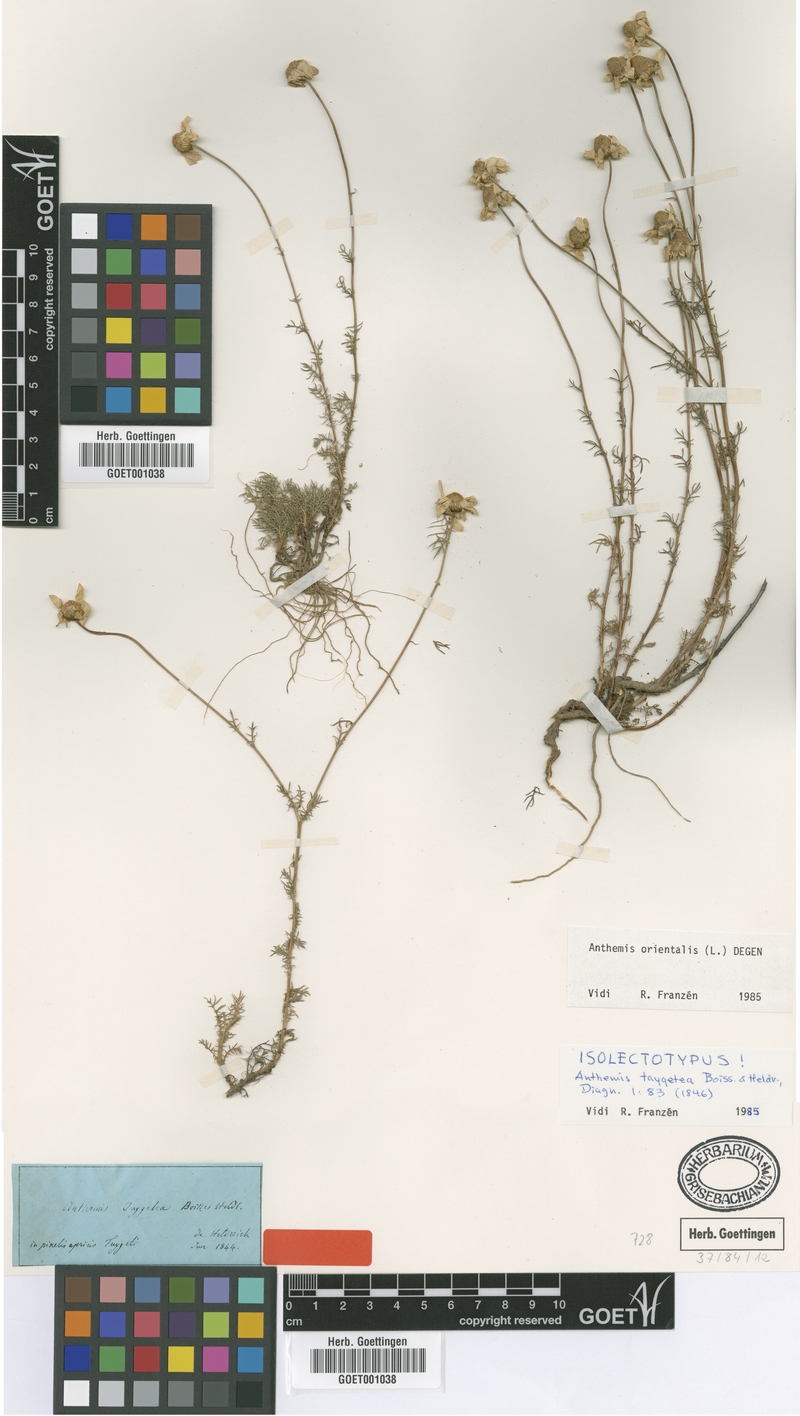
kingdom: Plantae
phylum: Tracheophyta
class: Magnoliopsida
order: Asterales
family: Asteraceae
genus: Anthemis
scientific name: Anthemis orientalis
